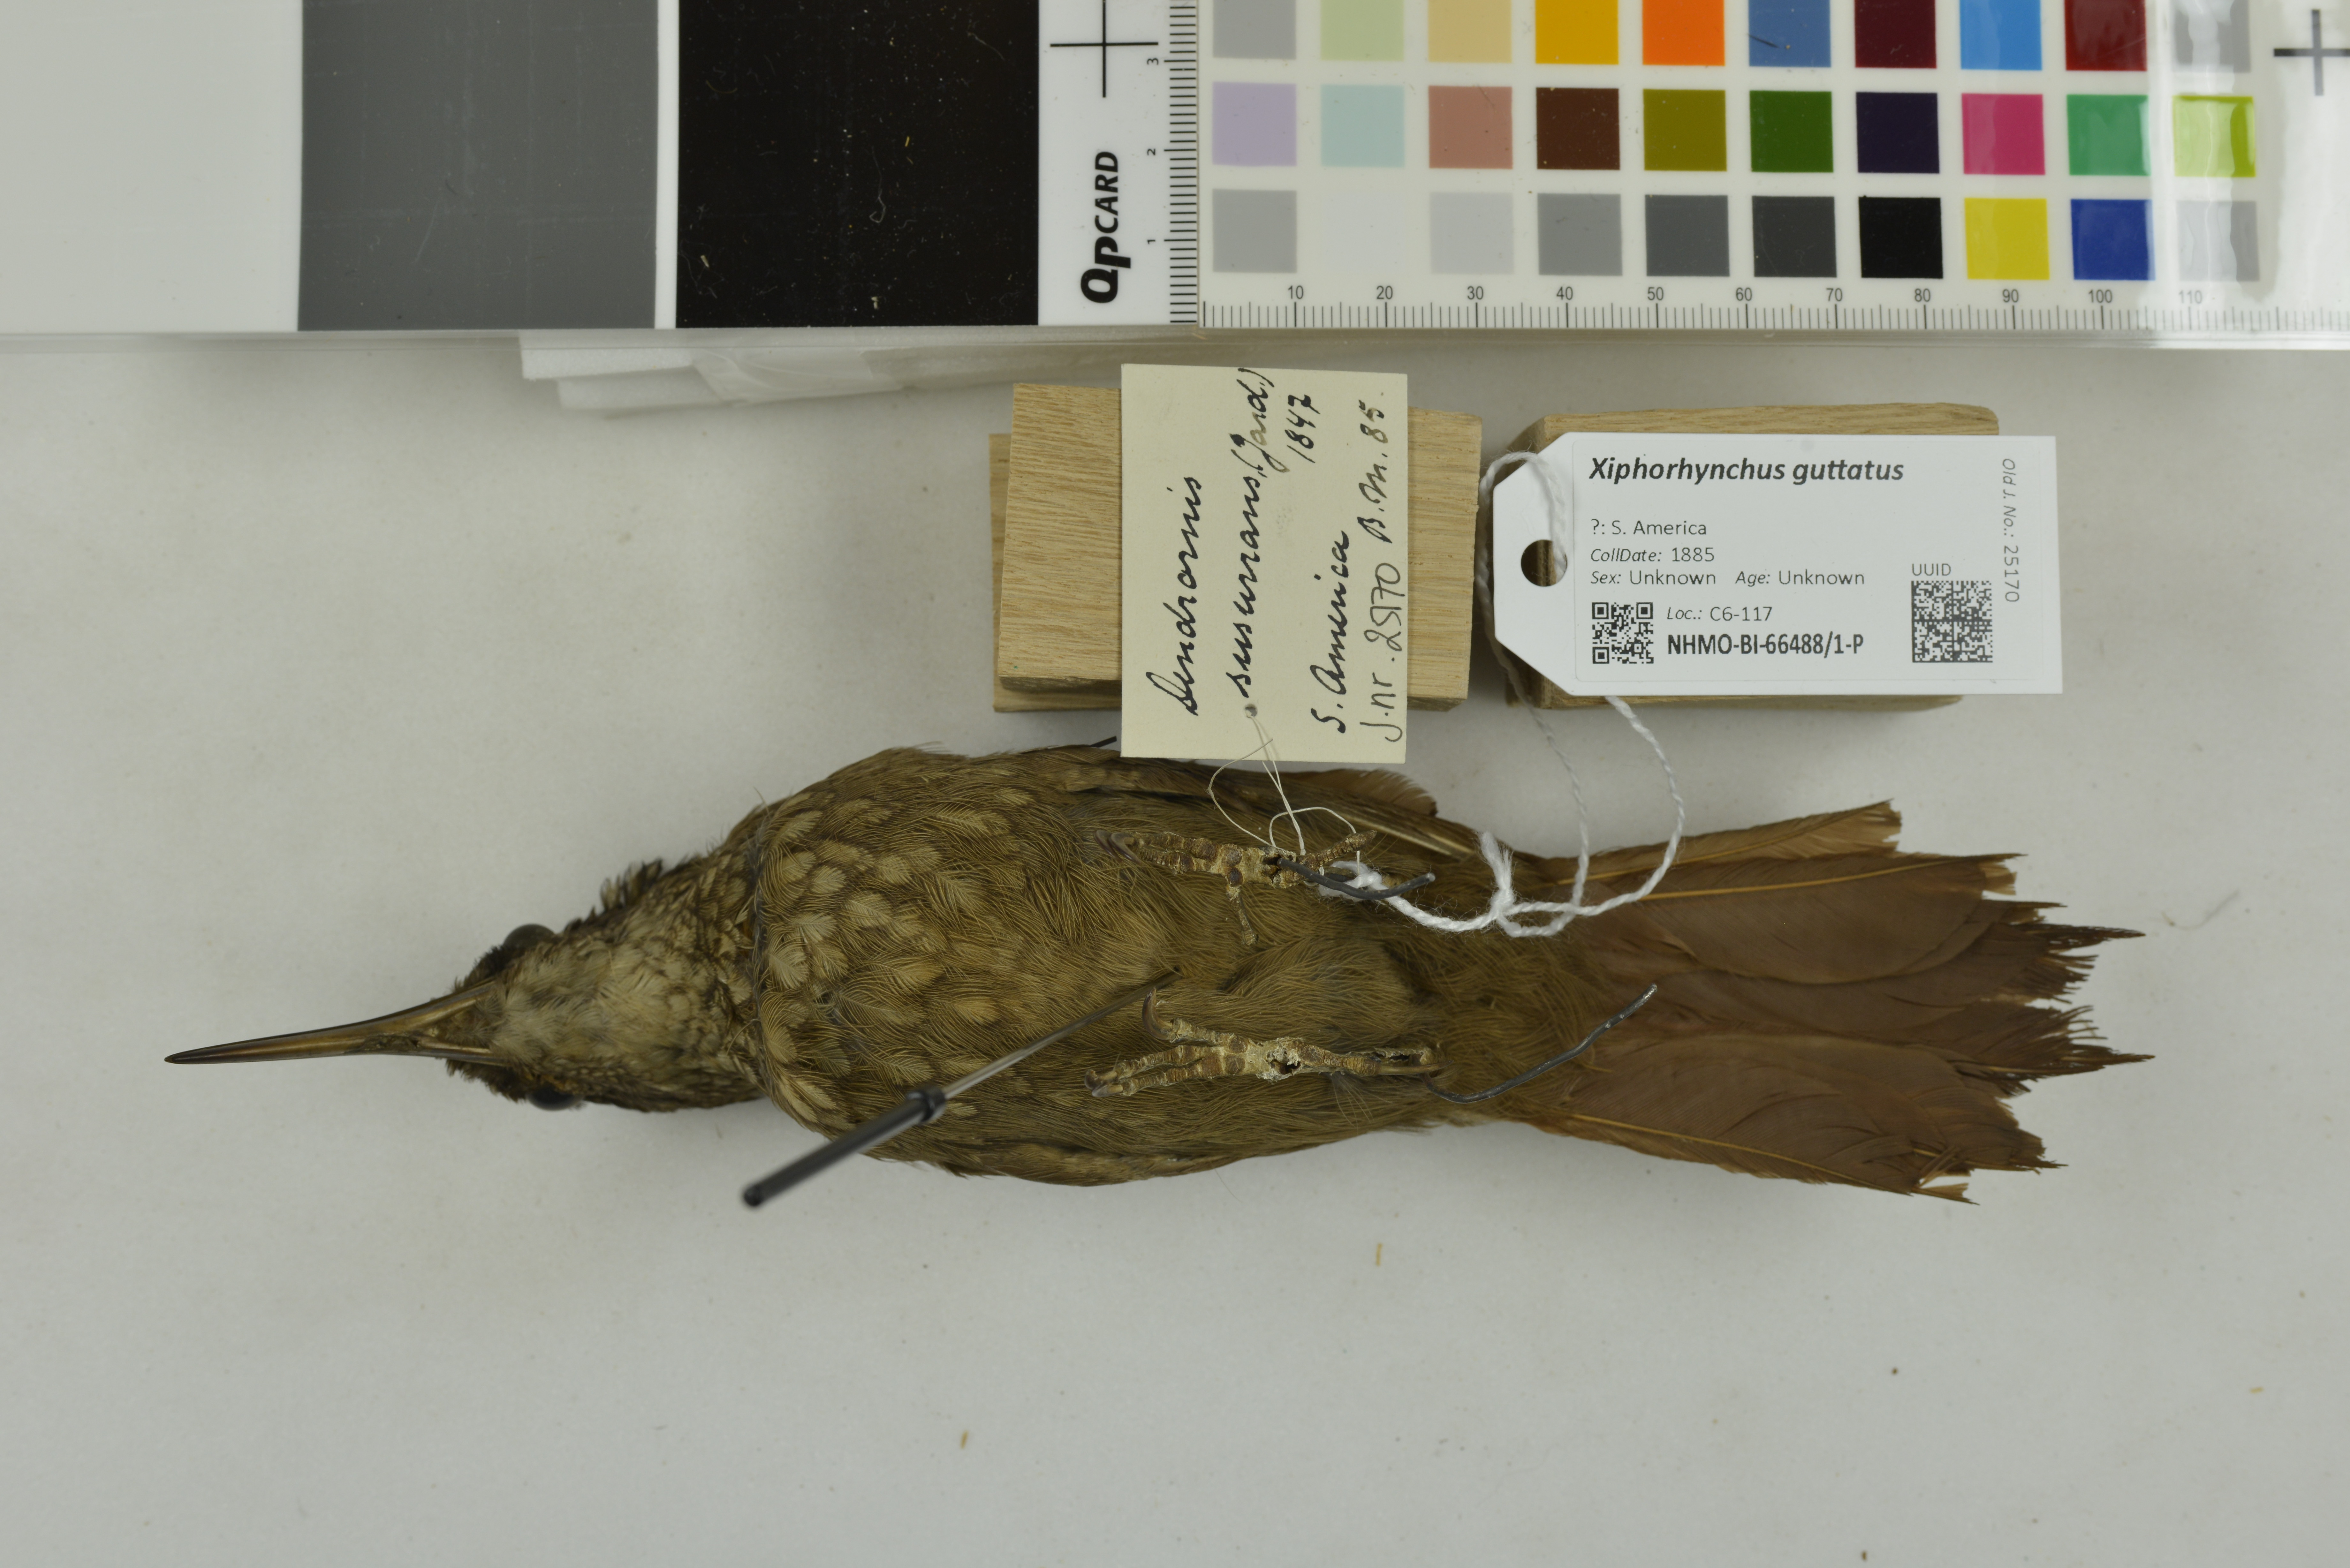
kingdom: Animalia
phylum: Chordata
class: Aves
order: Passeriformes
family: Furnariidae
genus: Xiphorhynchus
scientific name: Xiphorhynchus guttatus
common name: Buff-throated woodcreeper
